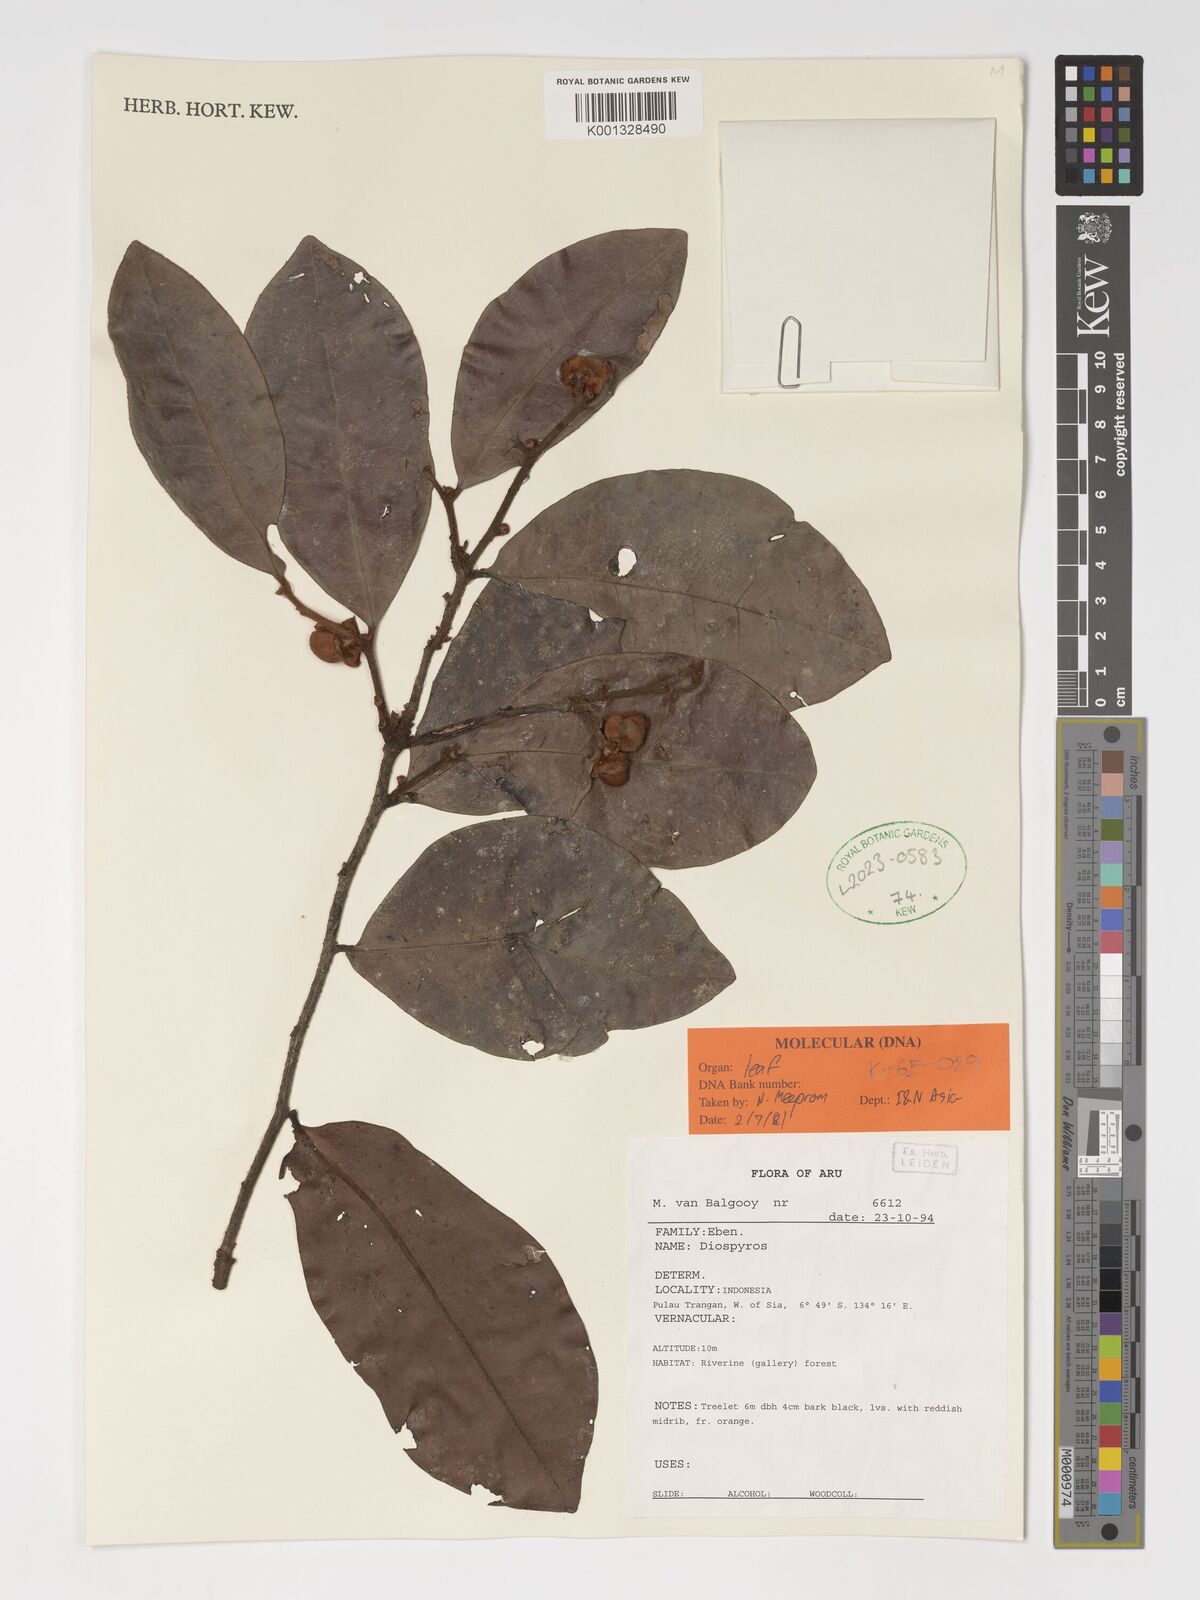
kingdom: Plantae
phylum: Tracheophyta
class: Magnoliopsida
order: Ericales
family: Ebenaceae
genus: Diospyros
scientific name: Diospyros
